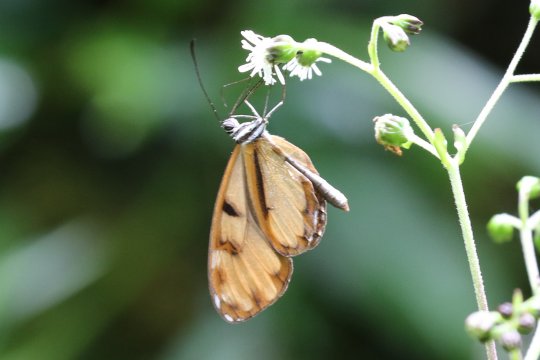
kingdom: Animalia
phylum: Arthropoda
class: Insecta
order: Lepidoptera
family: Nymphalidae
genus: Oleria
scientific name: Oleria baizana
